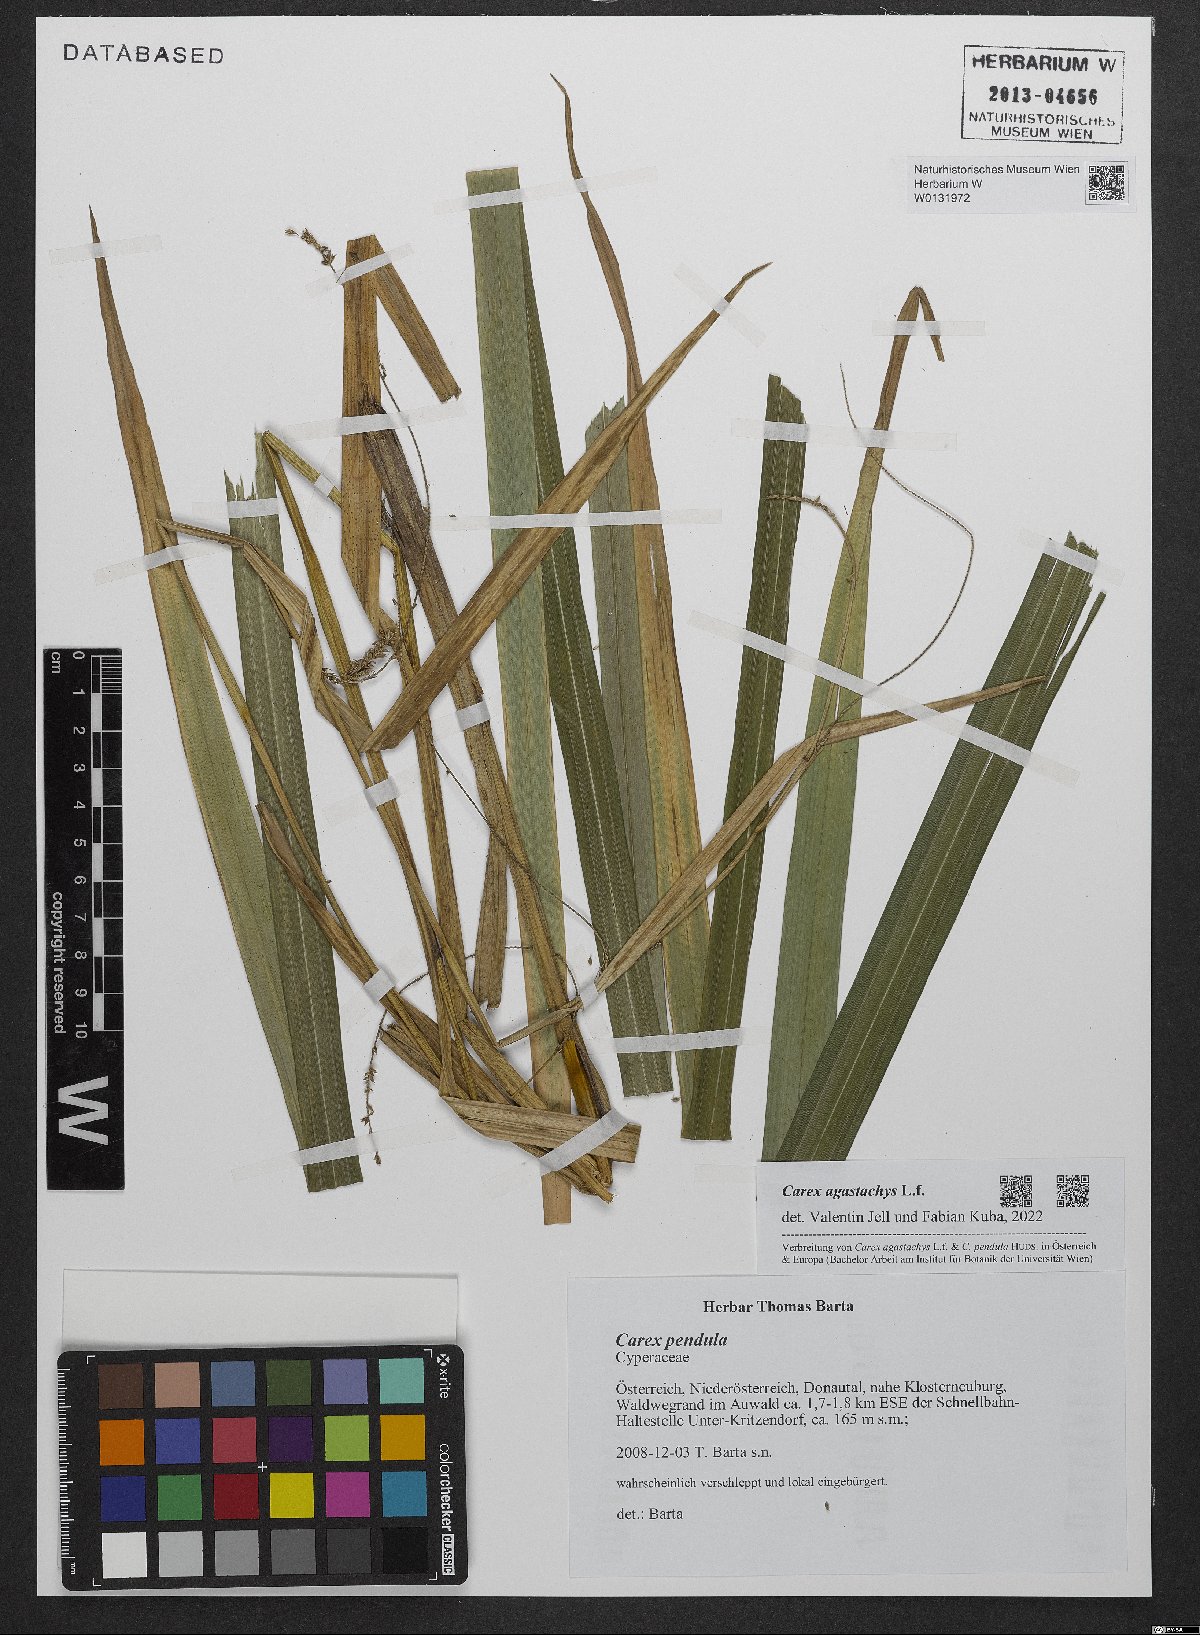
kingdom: Plantae
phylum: Tracheophyta
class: Liliopsida
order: Poales
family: Cyperaceae
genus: Carex
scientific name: Carex agastachys
